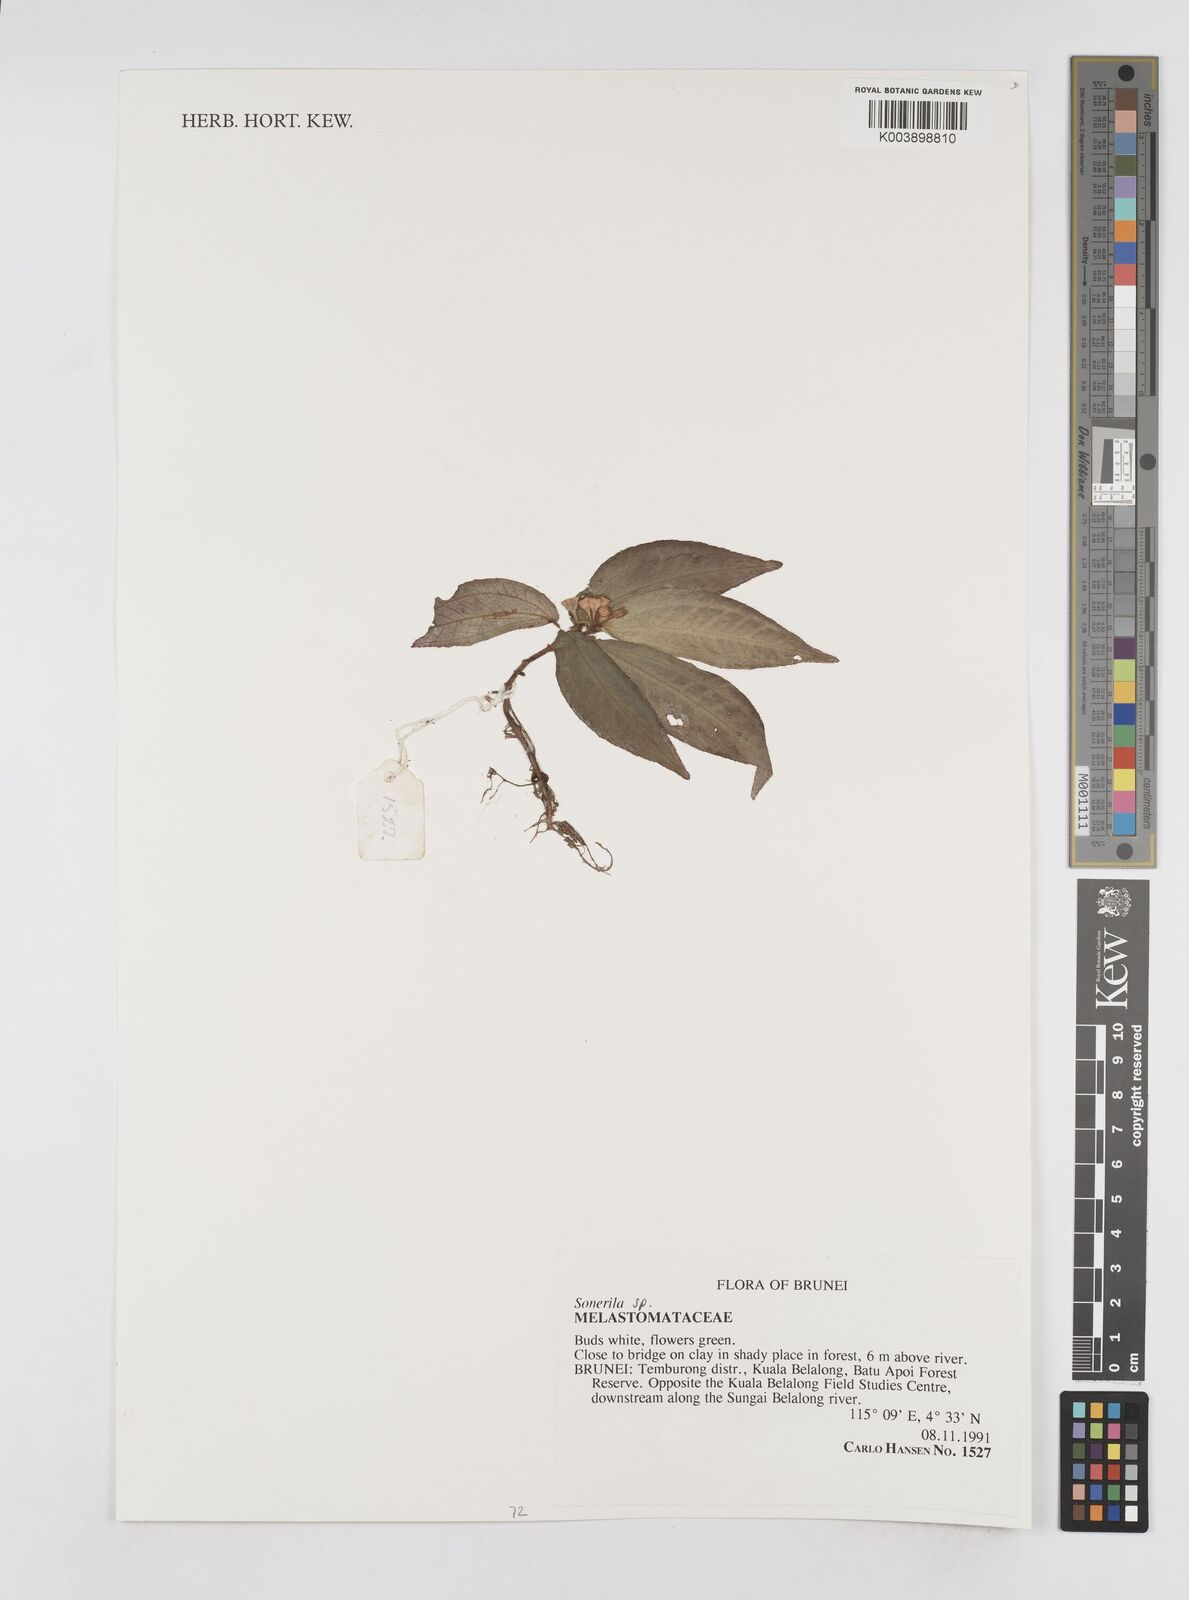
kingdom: Plantae
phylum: Tracheophyta
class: Magnoliopsida
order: Myrtales
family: Melastomataceae
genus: Sonerila
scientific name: Sonerila
